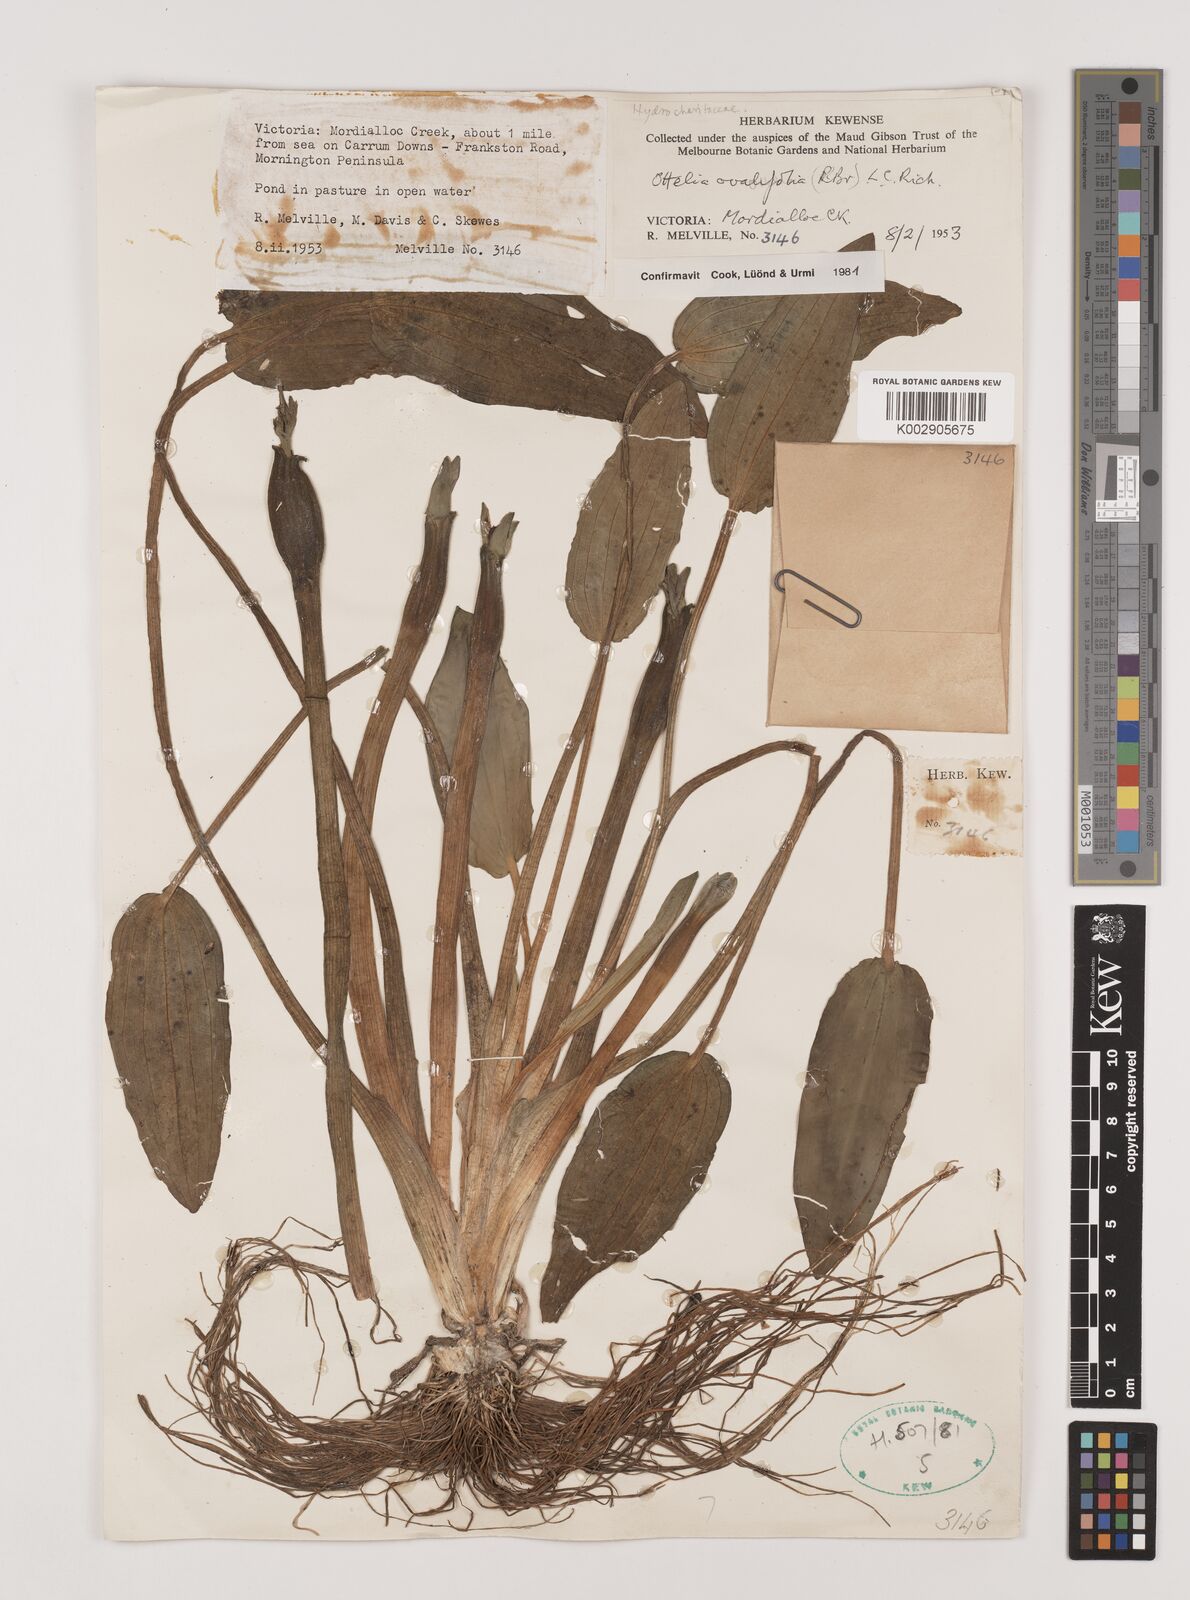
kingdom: Plantae
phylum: Tracheophyta
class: Liliopsida
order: Alismatales
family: Hydrocharitaceae
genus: Ottelia
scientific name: Ottelia ovalifolia
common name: Swamp-lily
